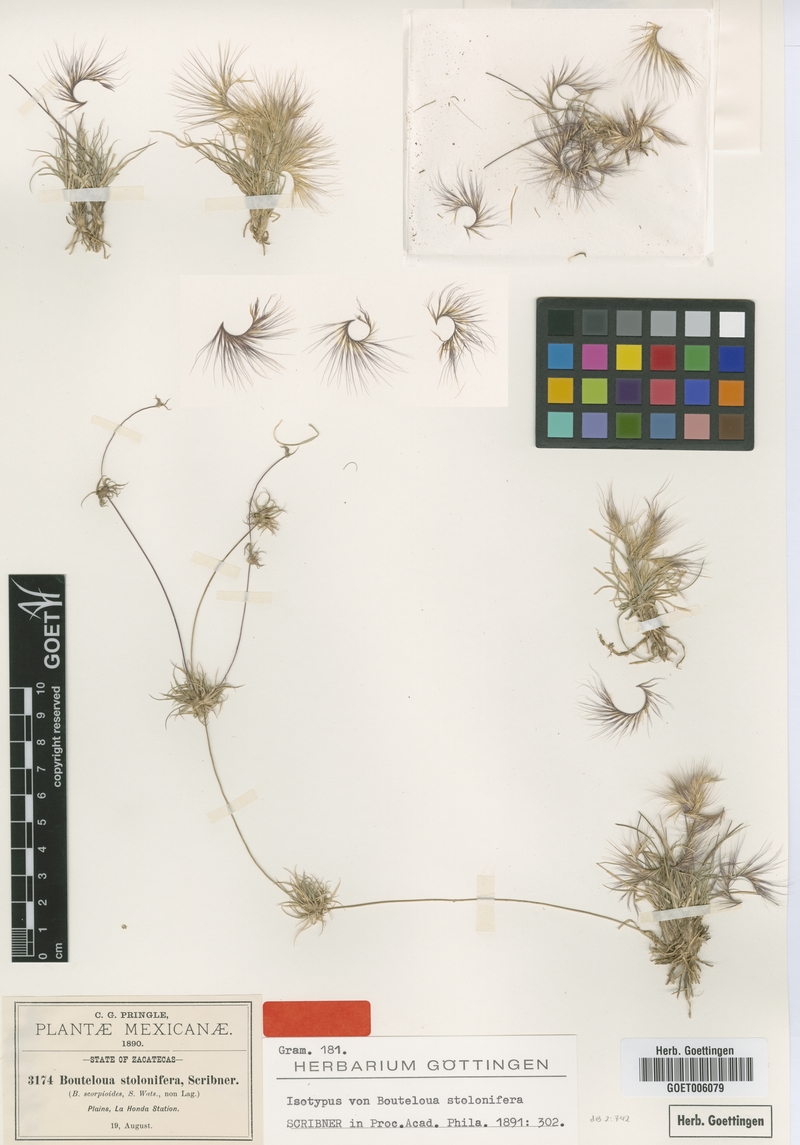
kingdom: Plantae
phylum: Tracheophyta
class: Liliopsida
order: Poales
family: Poaceae
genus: Bouteloua
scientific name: Bouteloua stolonifera
